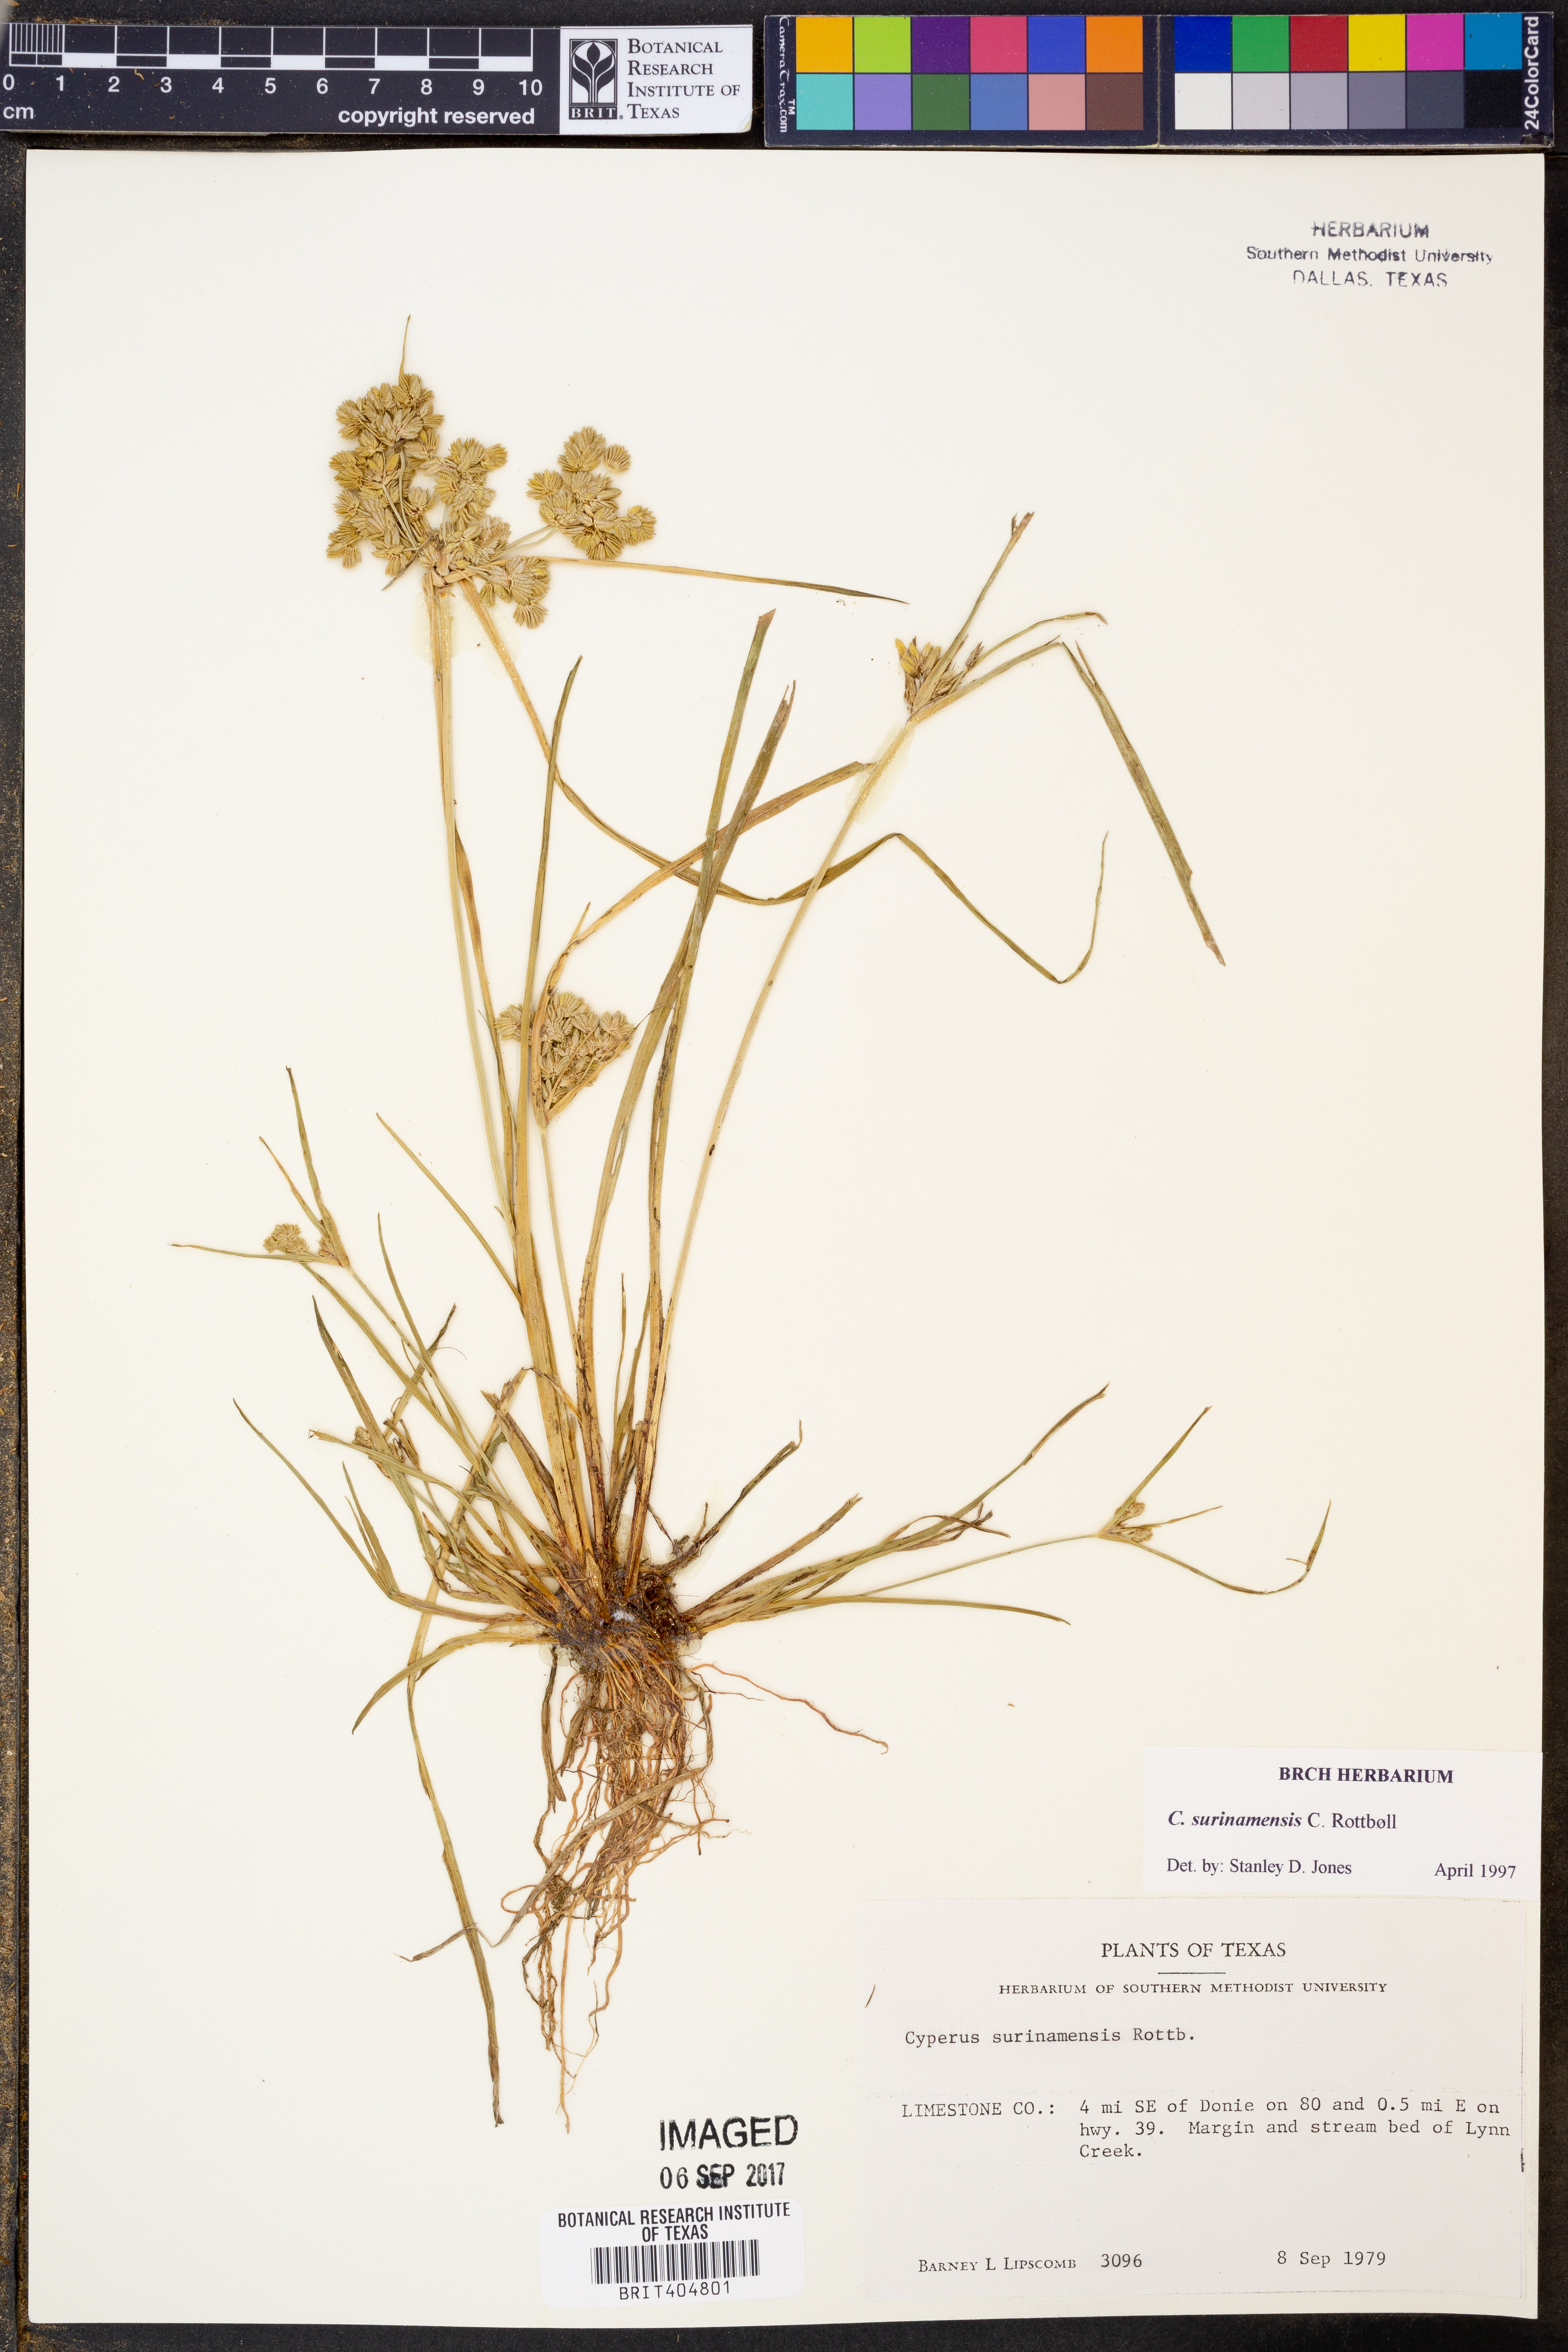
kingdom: Plantae
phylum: Tracheophyta
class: Liliopsida
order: Poales
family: Cyperaceae
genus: Cyperus
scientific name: Cyperus surinamensis
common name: Tropical flat sedge
